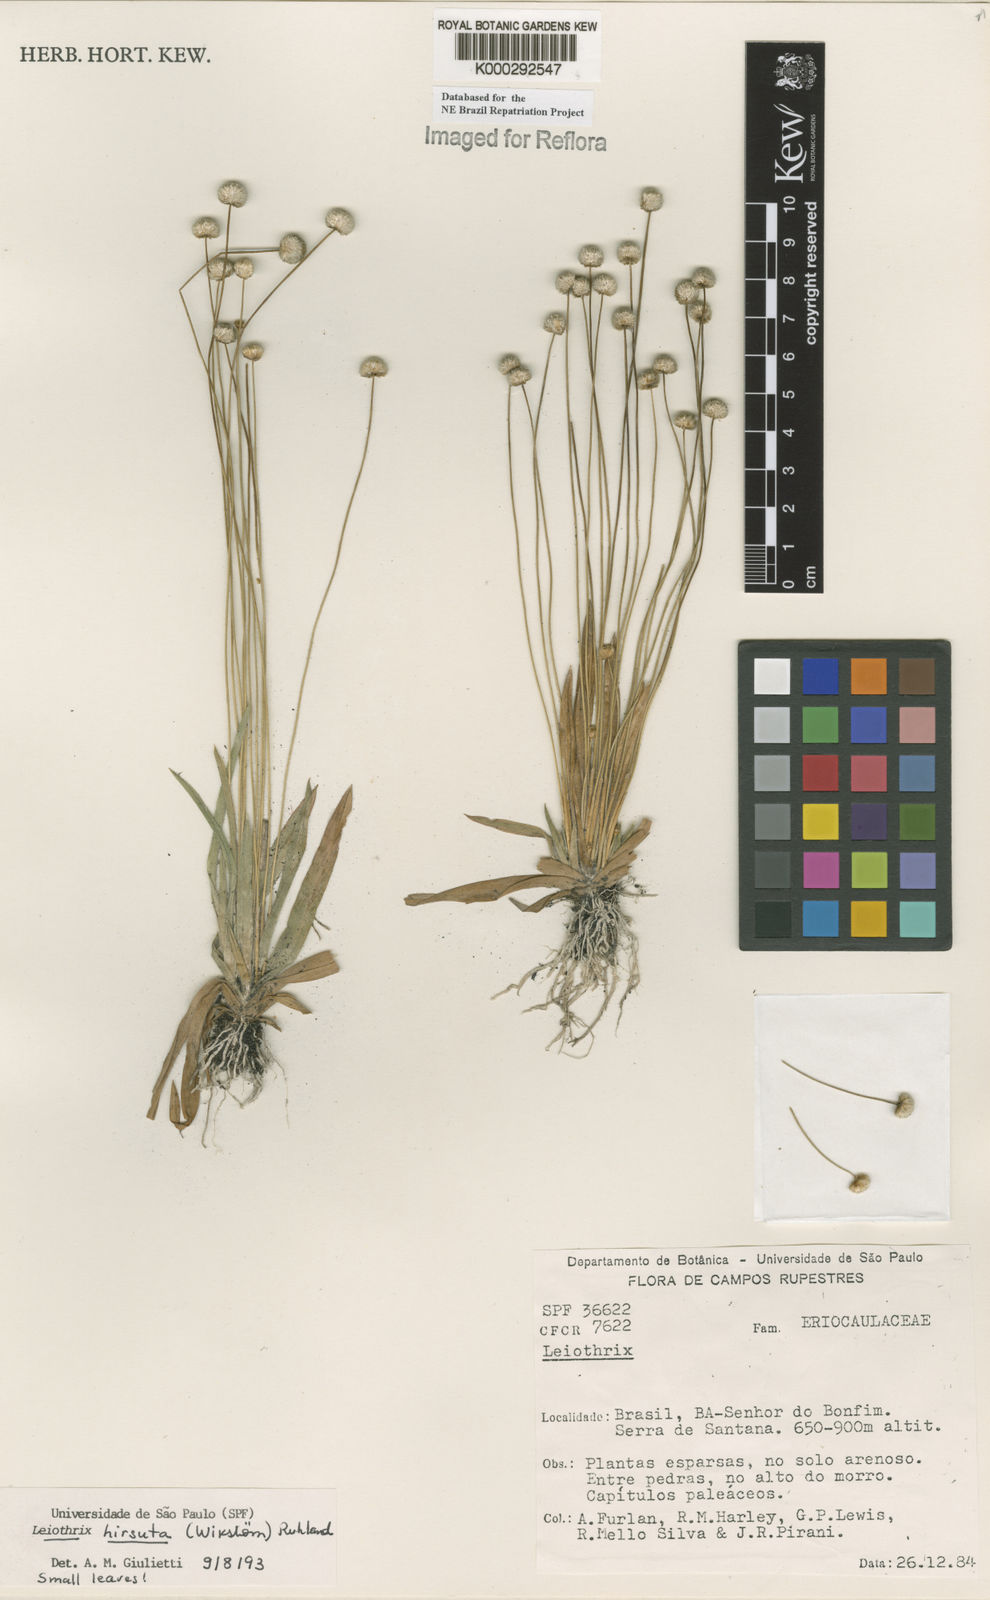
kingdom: Plantae
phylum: Tracheophyta
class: Liliopsida
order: Poales
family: Eriocaulaceae
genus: Leiothrix
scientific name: Leiothrix hirsuta
